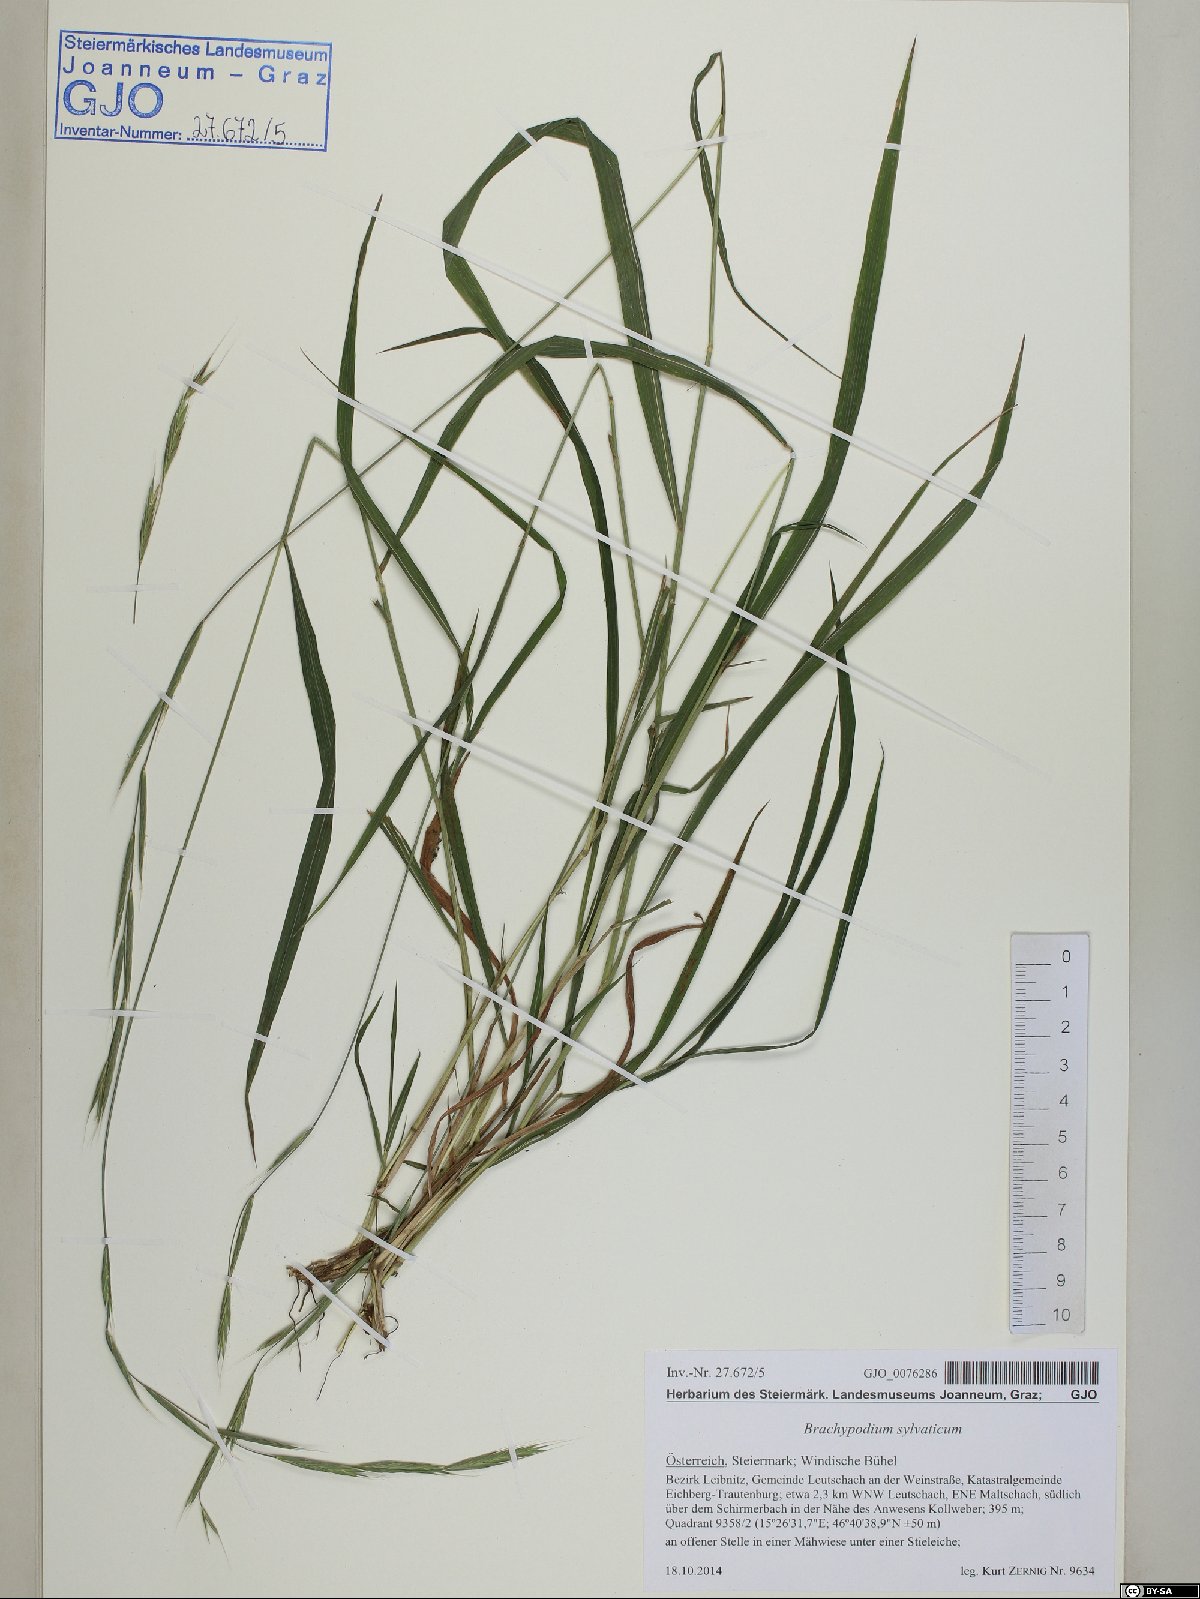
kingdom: Plantae
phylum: Tracheophyta
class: Liliopsida
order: Poales
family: Poaceae
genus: Brachypodium
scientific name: Brachypodium sylvaticum
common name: False-brome
